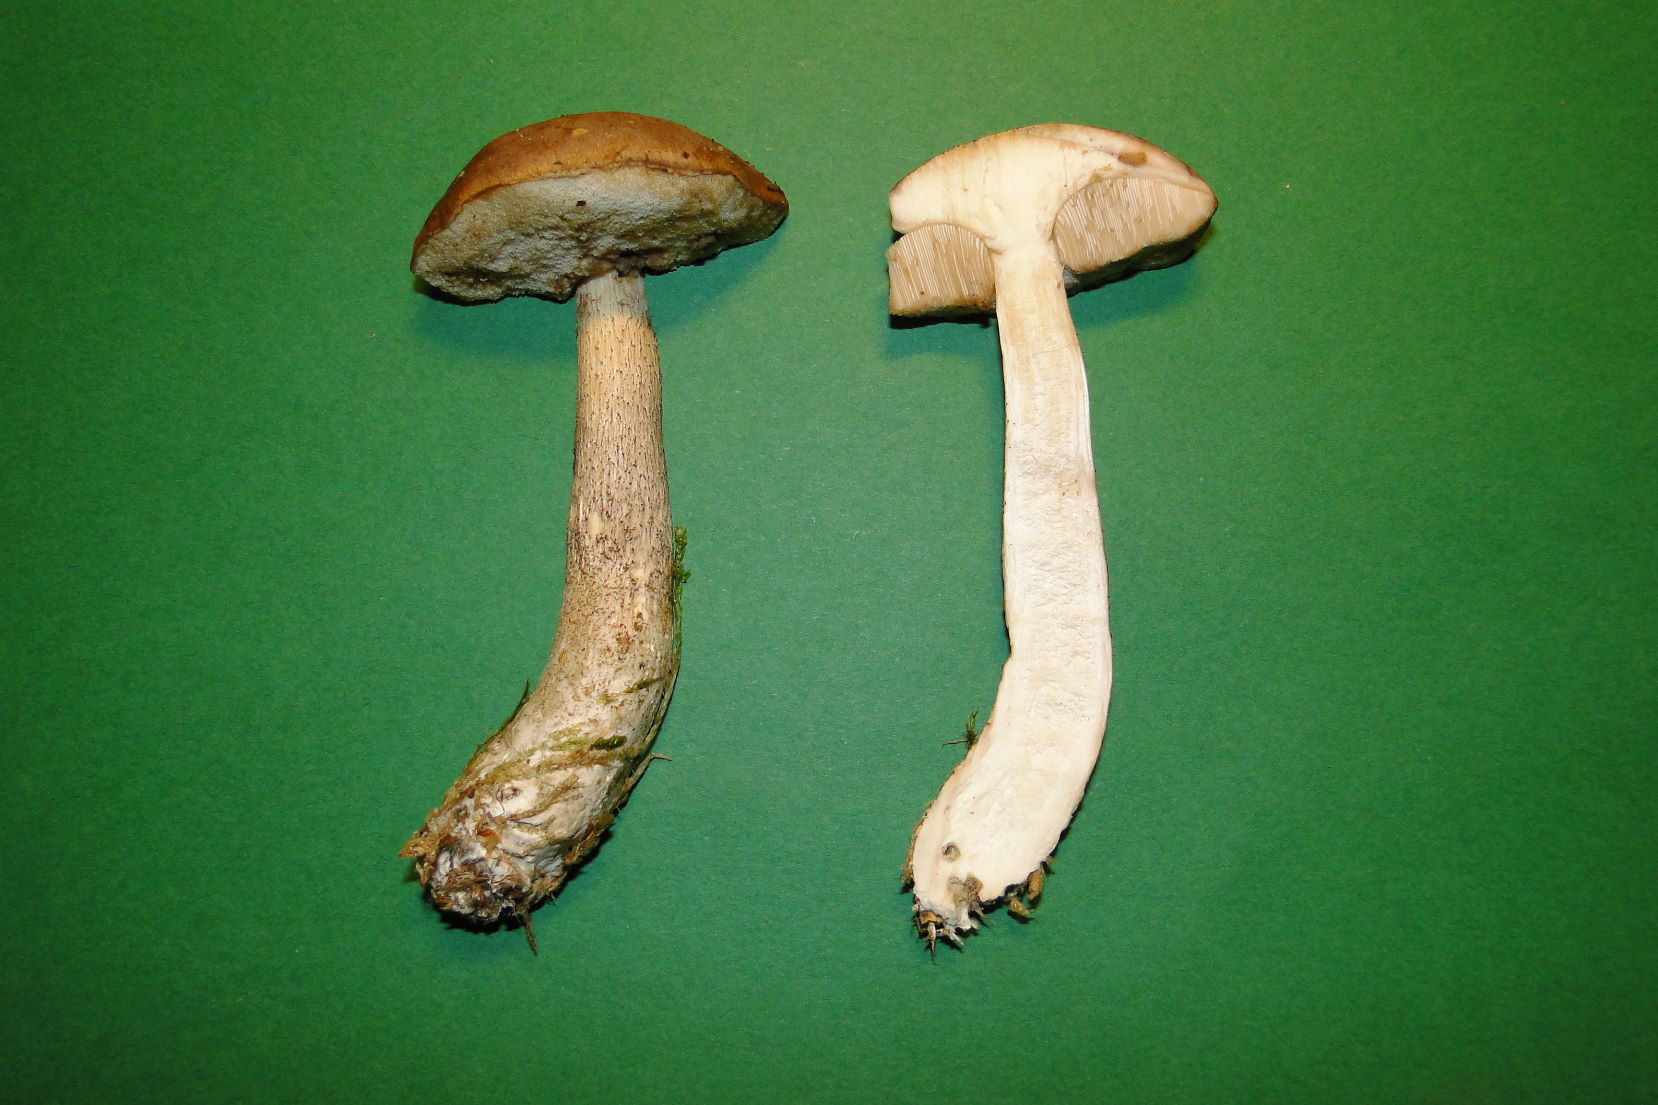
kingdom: Fungi
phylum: Basidiomycota
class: Agaricomycetes
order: Boletales
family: Boletaceae
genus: Leccinum
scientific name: Leccinum cyaneobasileucum
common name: almindelig skælrørhat
